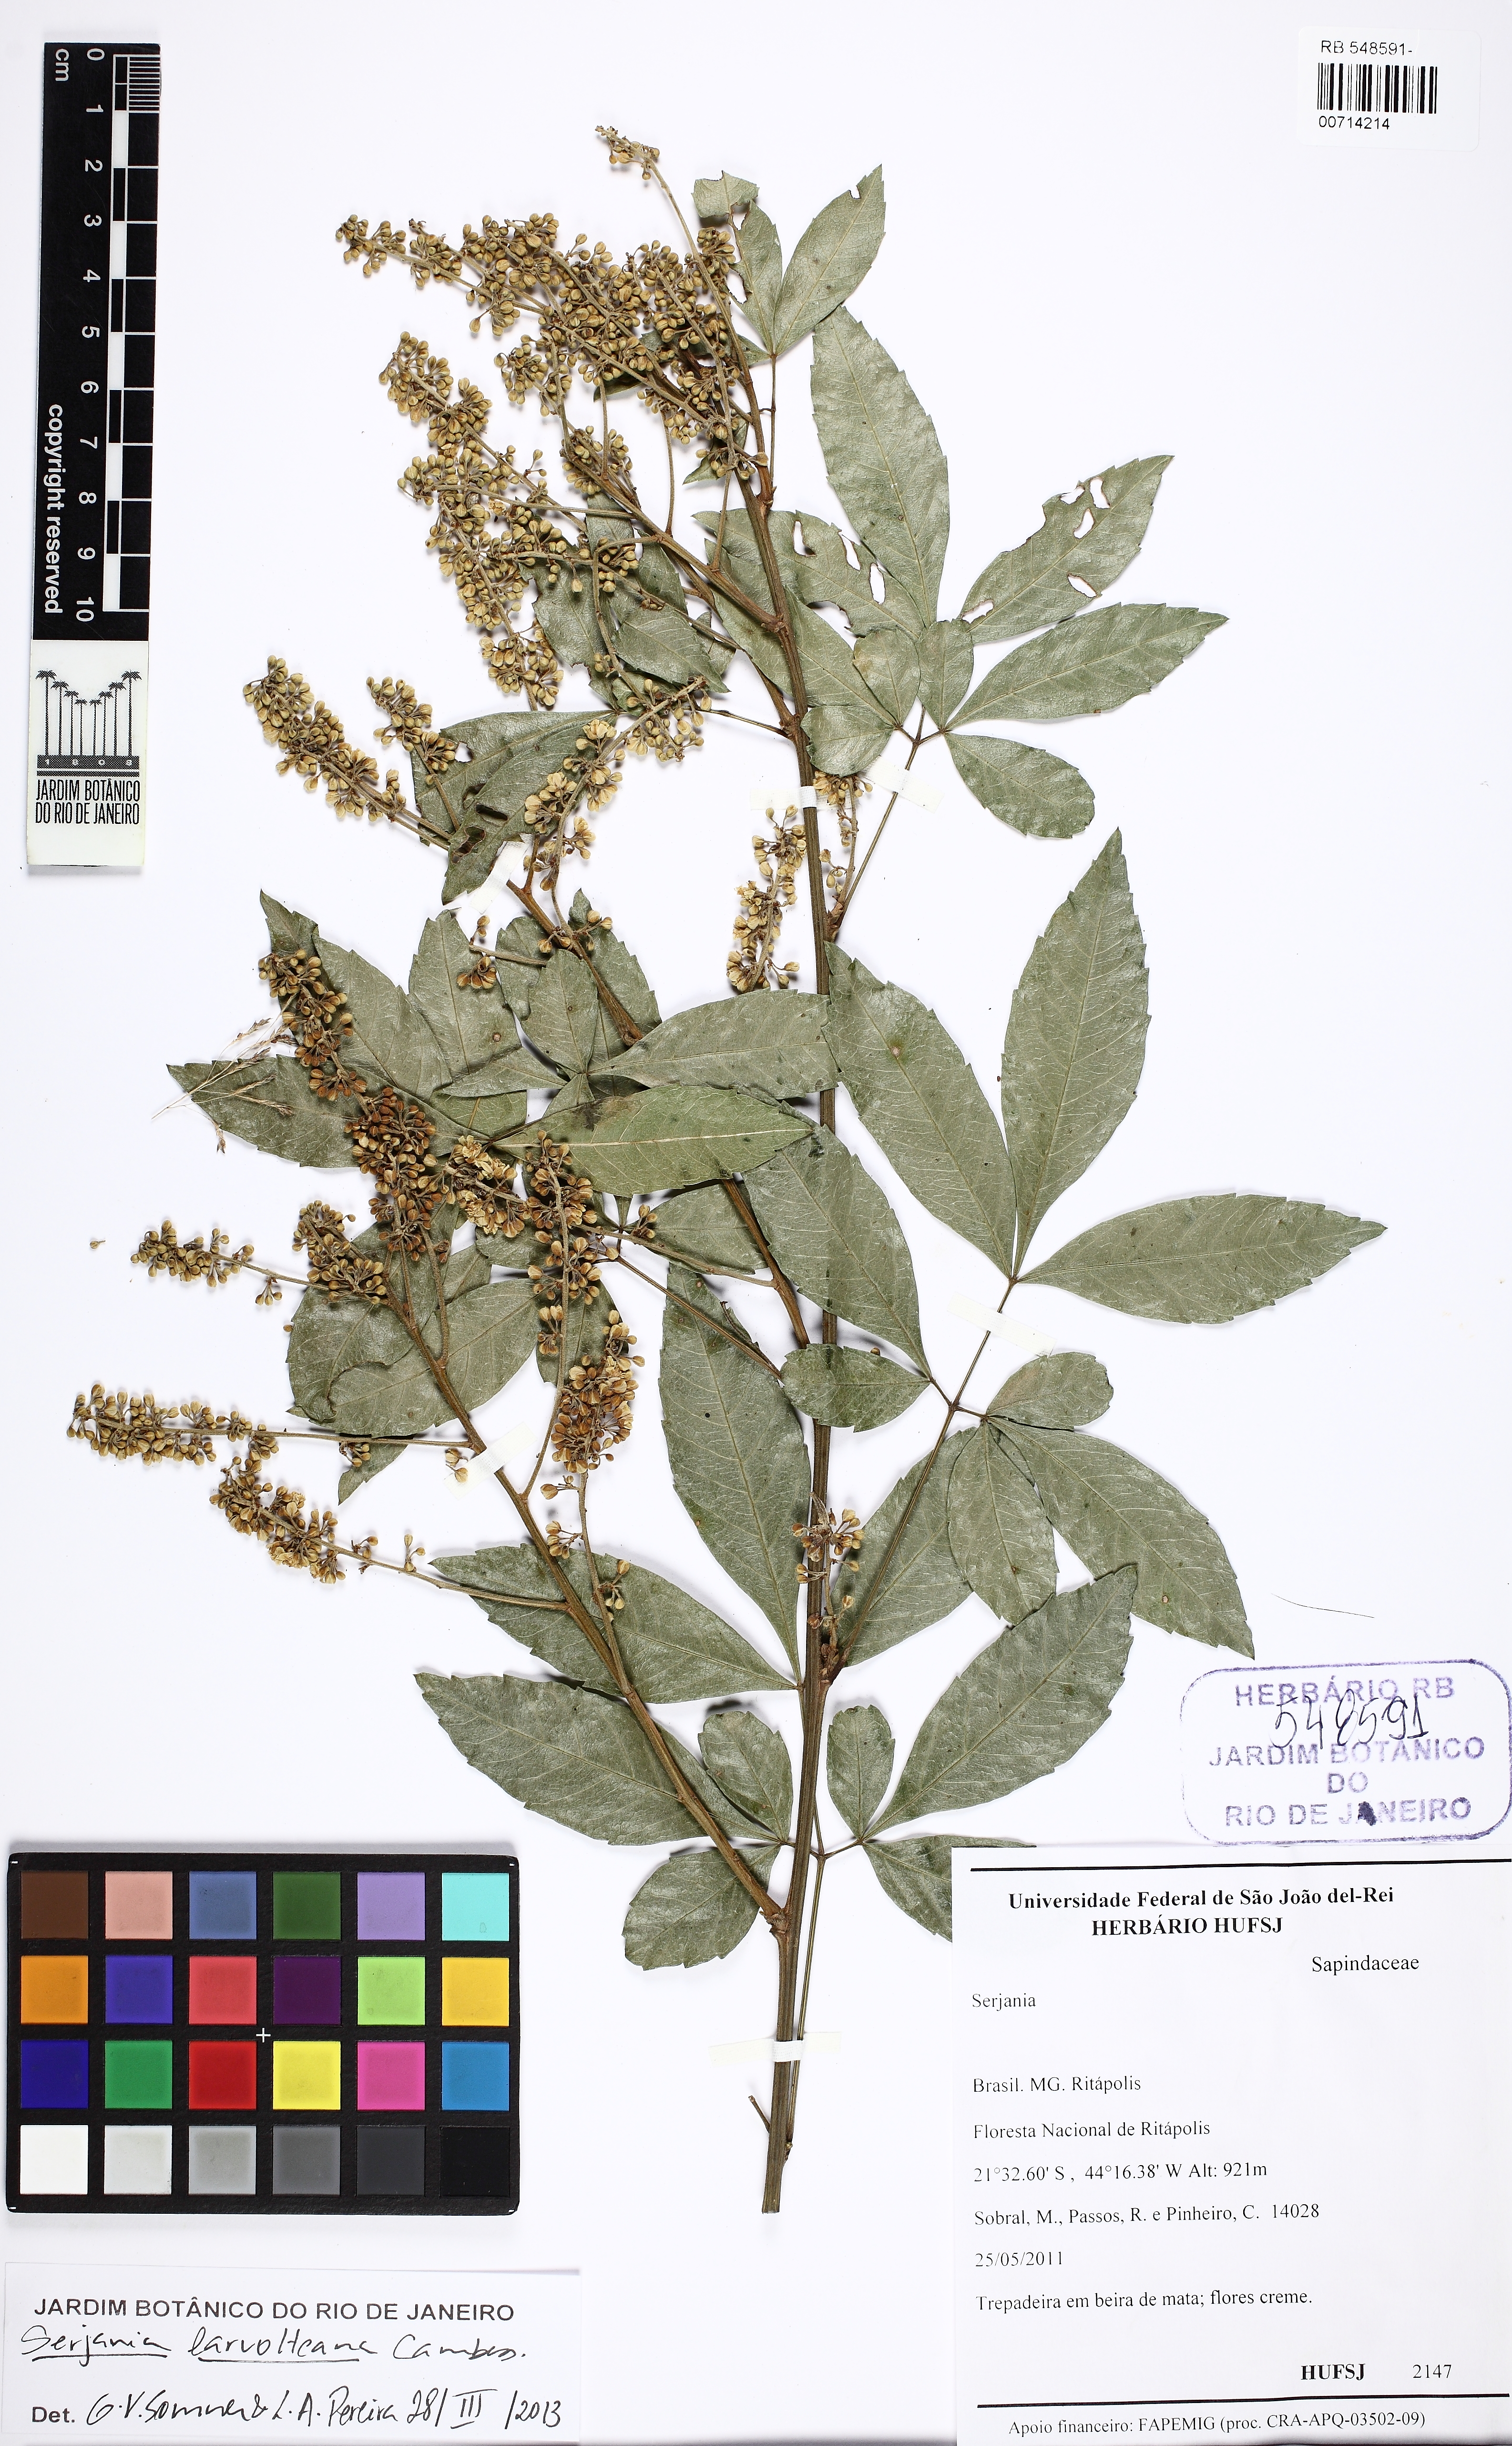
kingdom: Plantae
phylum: Tracheophyta
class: Magnoliopsida
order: Sapindales
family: Sapindaceae
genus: Serjania
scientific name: Serjania laruotteana
